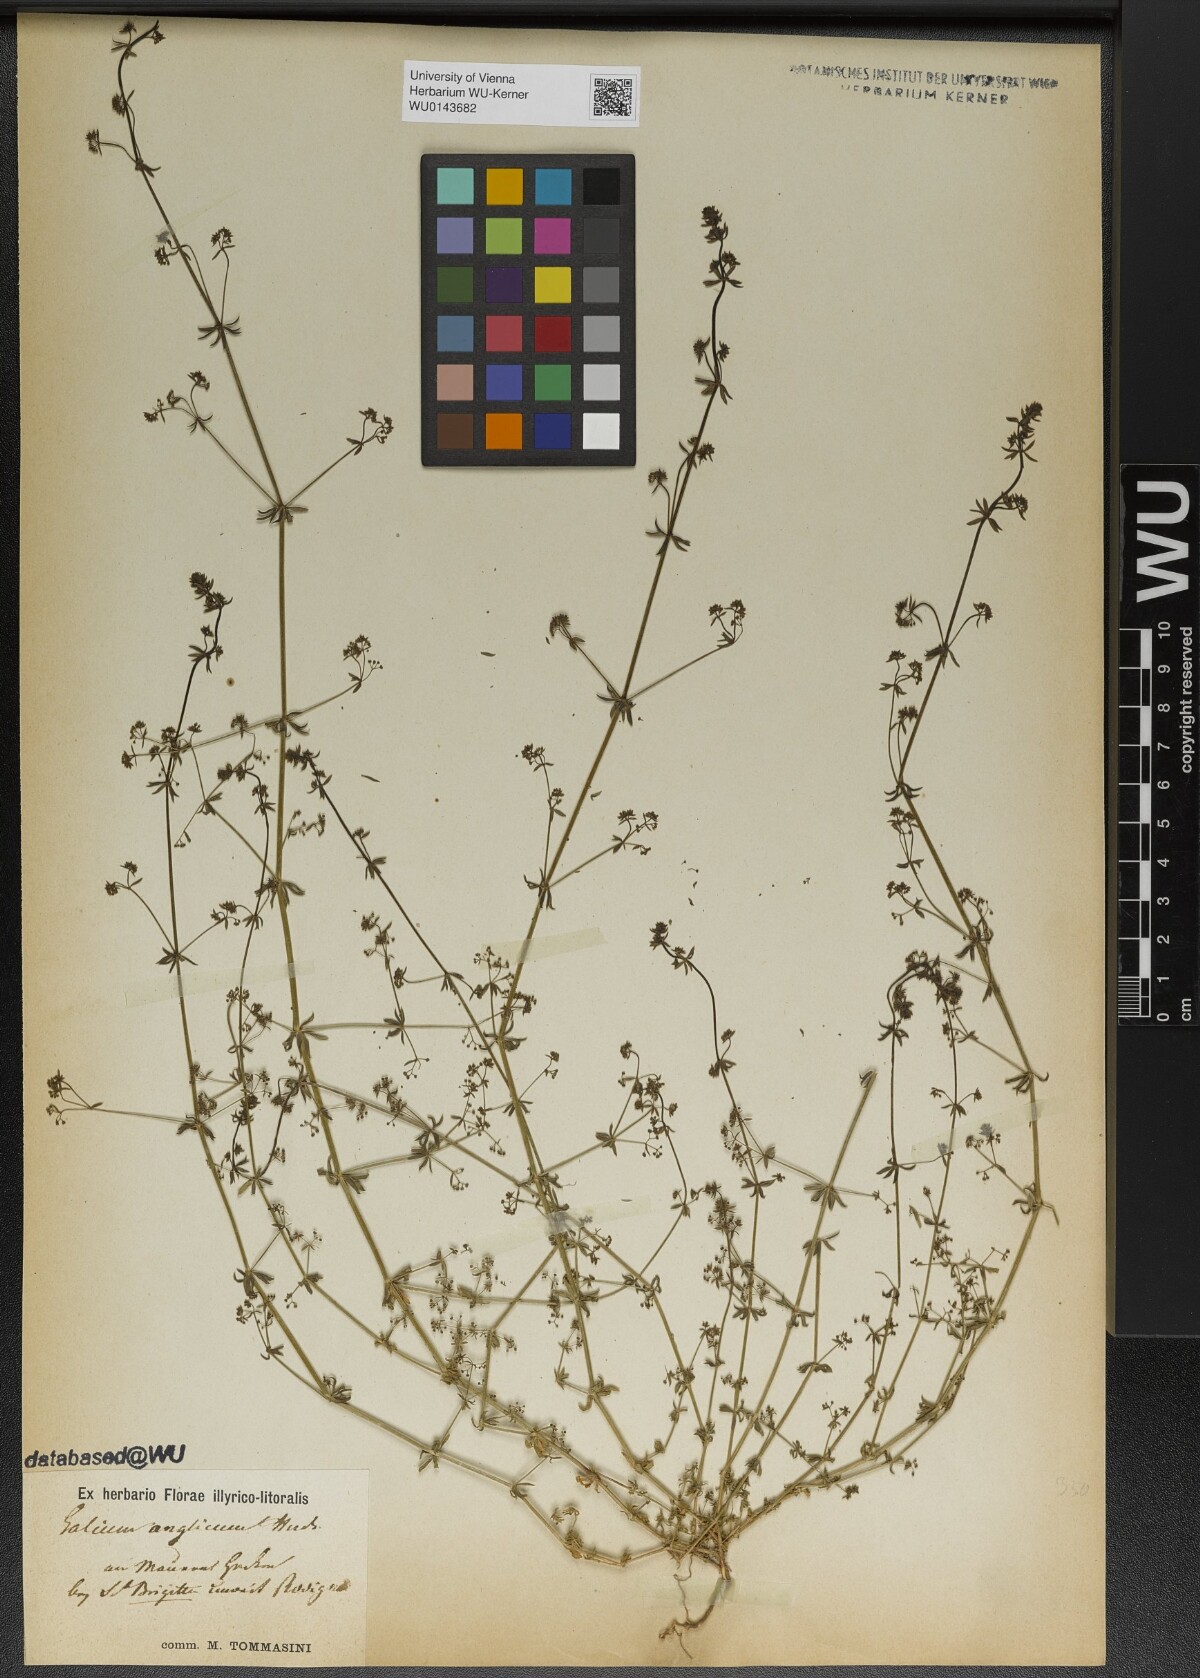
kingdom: Plantae
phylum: Tracheophyta
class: Magnoliopsida
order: Gentianales
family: Rubiaceae
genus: Galium
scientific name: Galium parisiense
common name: Wall bedstraw
